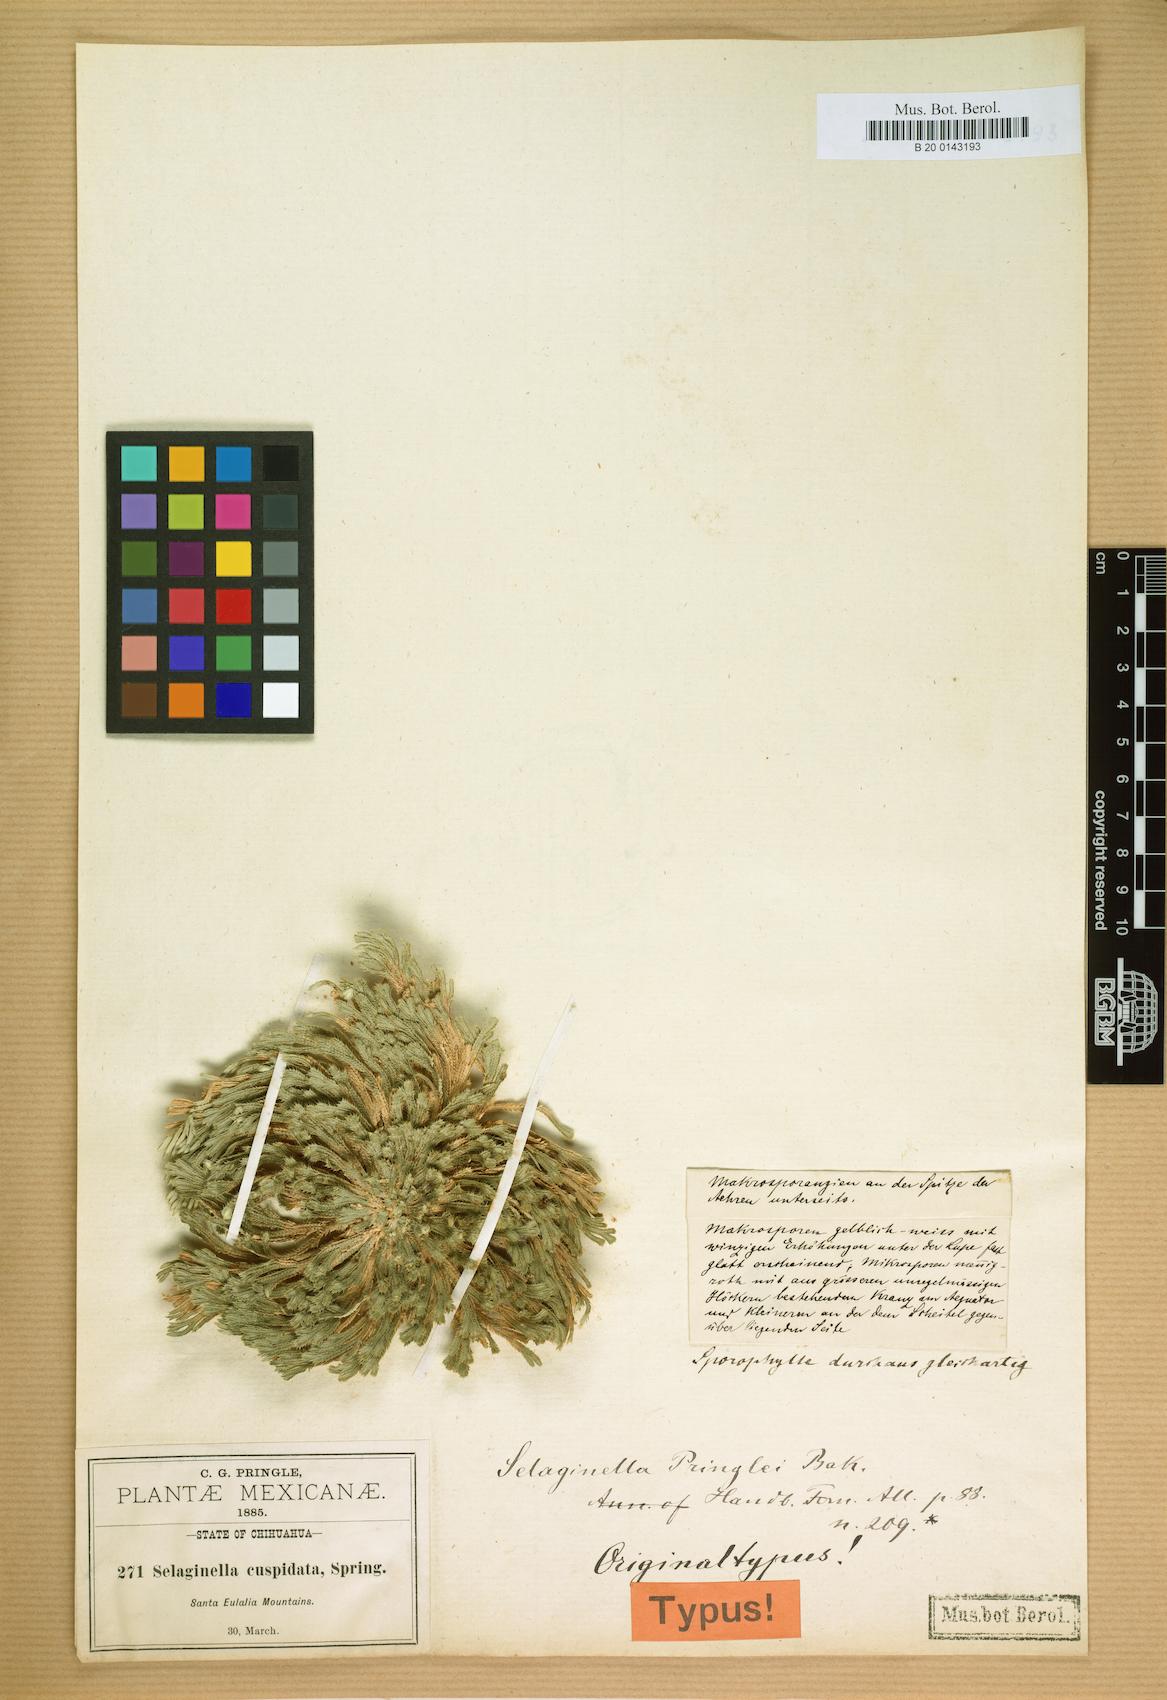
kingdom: Plantae
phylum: Tracheophyta
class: Lycopodiopsida
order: Selaginellales
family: Selaginellaceae
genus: Selaginella
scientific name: Selaginella pilifera
